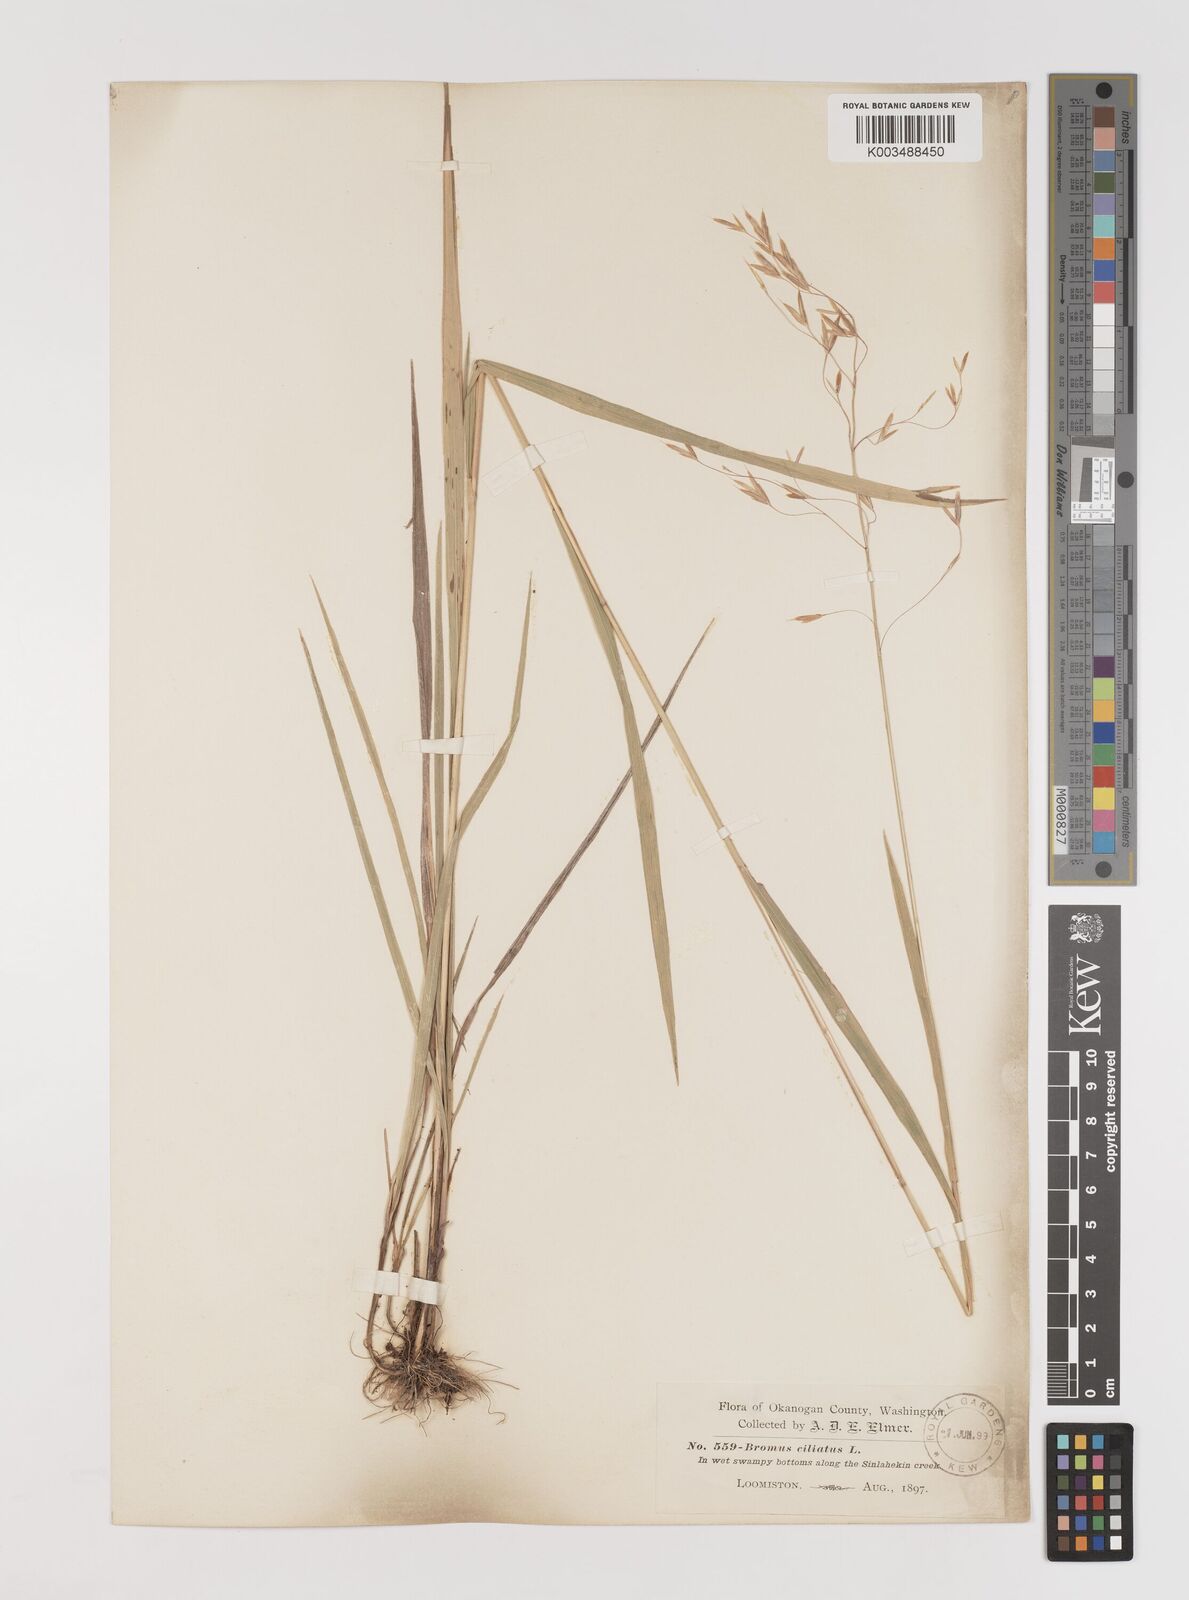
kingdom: Plantae
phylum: Tracheophyta
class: Liliopsida
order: Poales
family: Poaceae
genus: Bromus
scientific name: Bromus ciliatus
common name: Fringe brome
